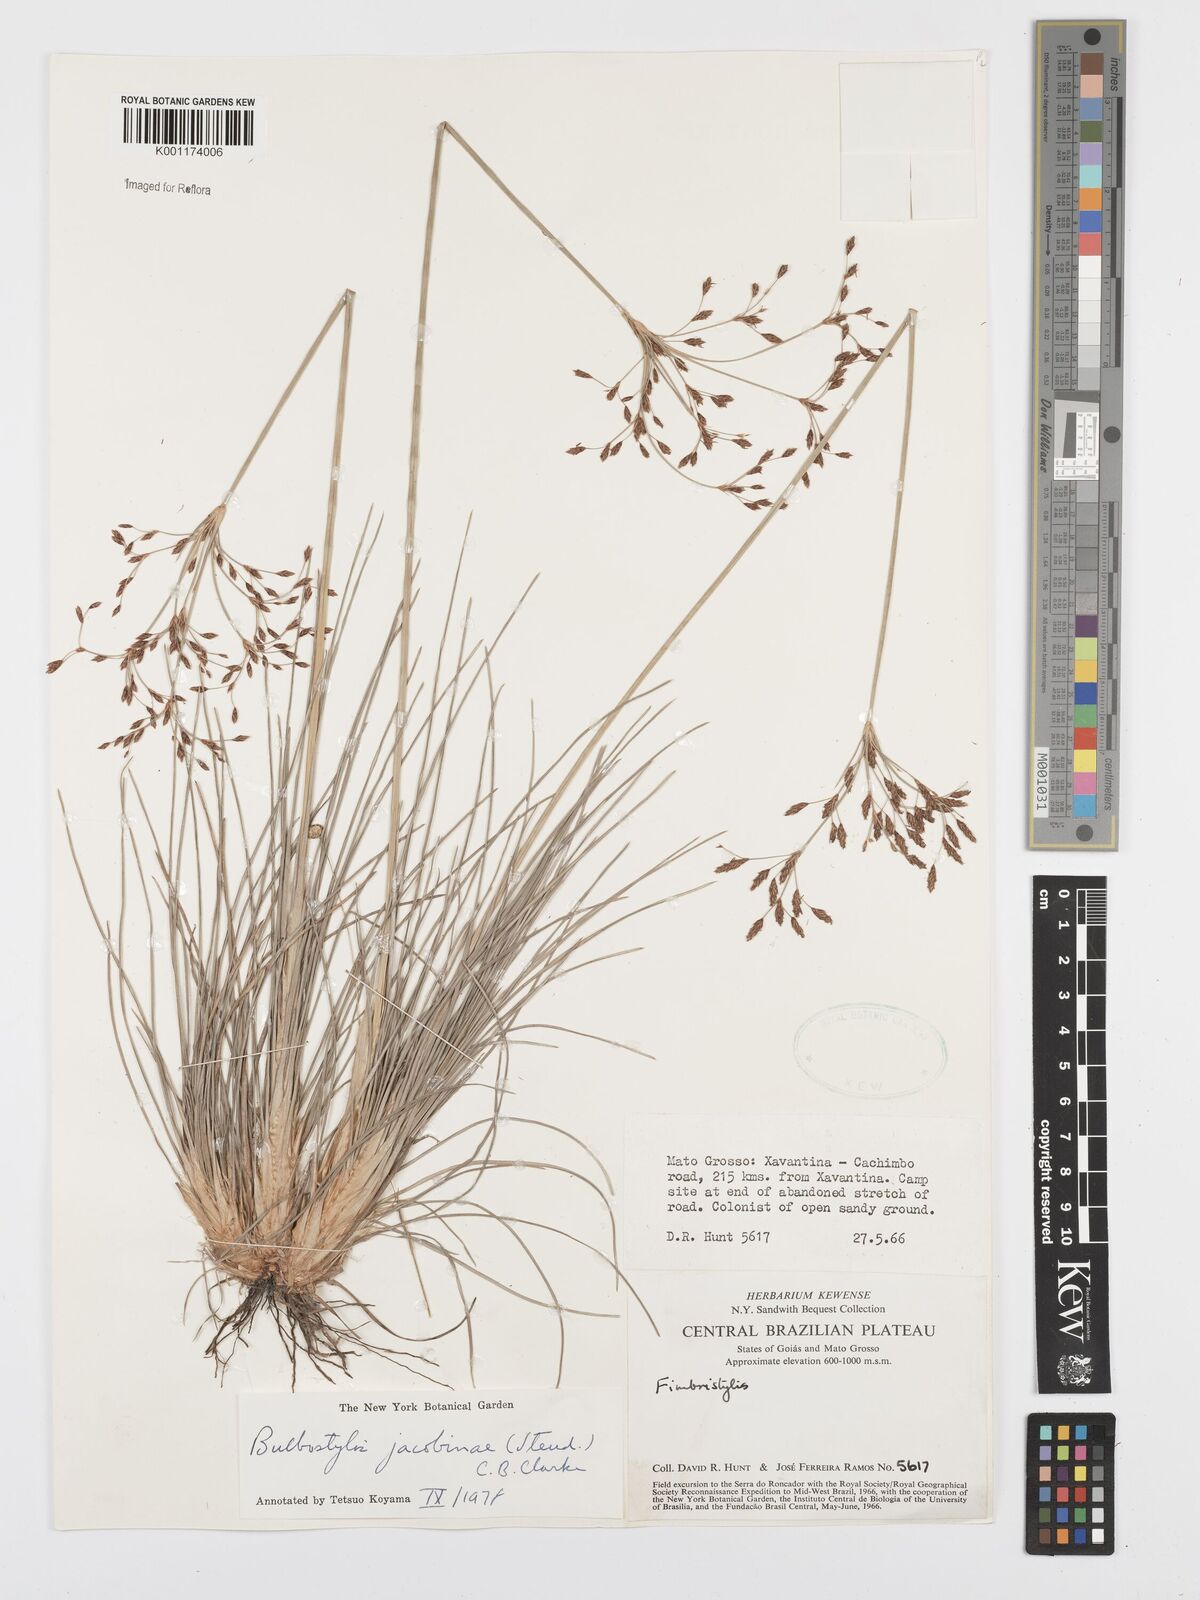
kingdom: Plantae
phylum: Tracheophyta
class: Liliopsida
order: Poales
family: Cyperaceae
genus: Bulbostylis
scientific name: Bulbostylis jacobinae
